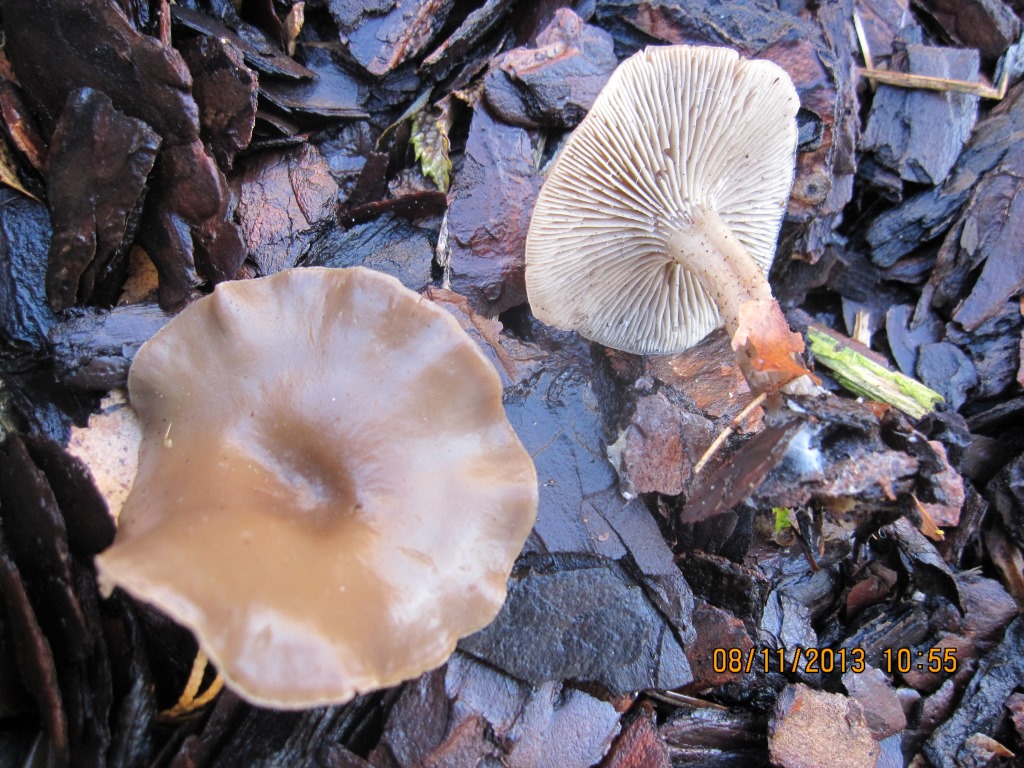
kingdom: Fungi
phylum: Basidiomycota
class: Agaricomycetes
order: Agaricales
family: Tricholomataceae
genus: Clitocybe
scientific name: Clitocybe subditopoda
